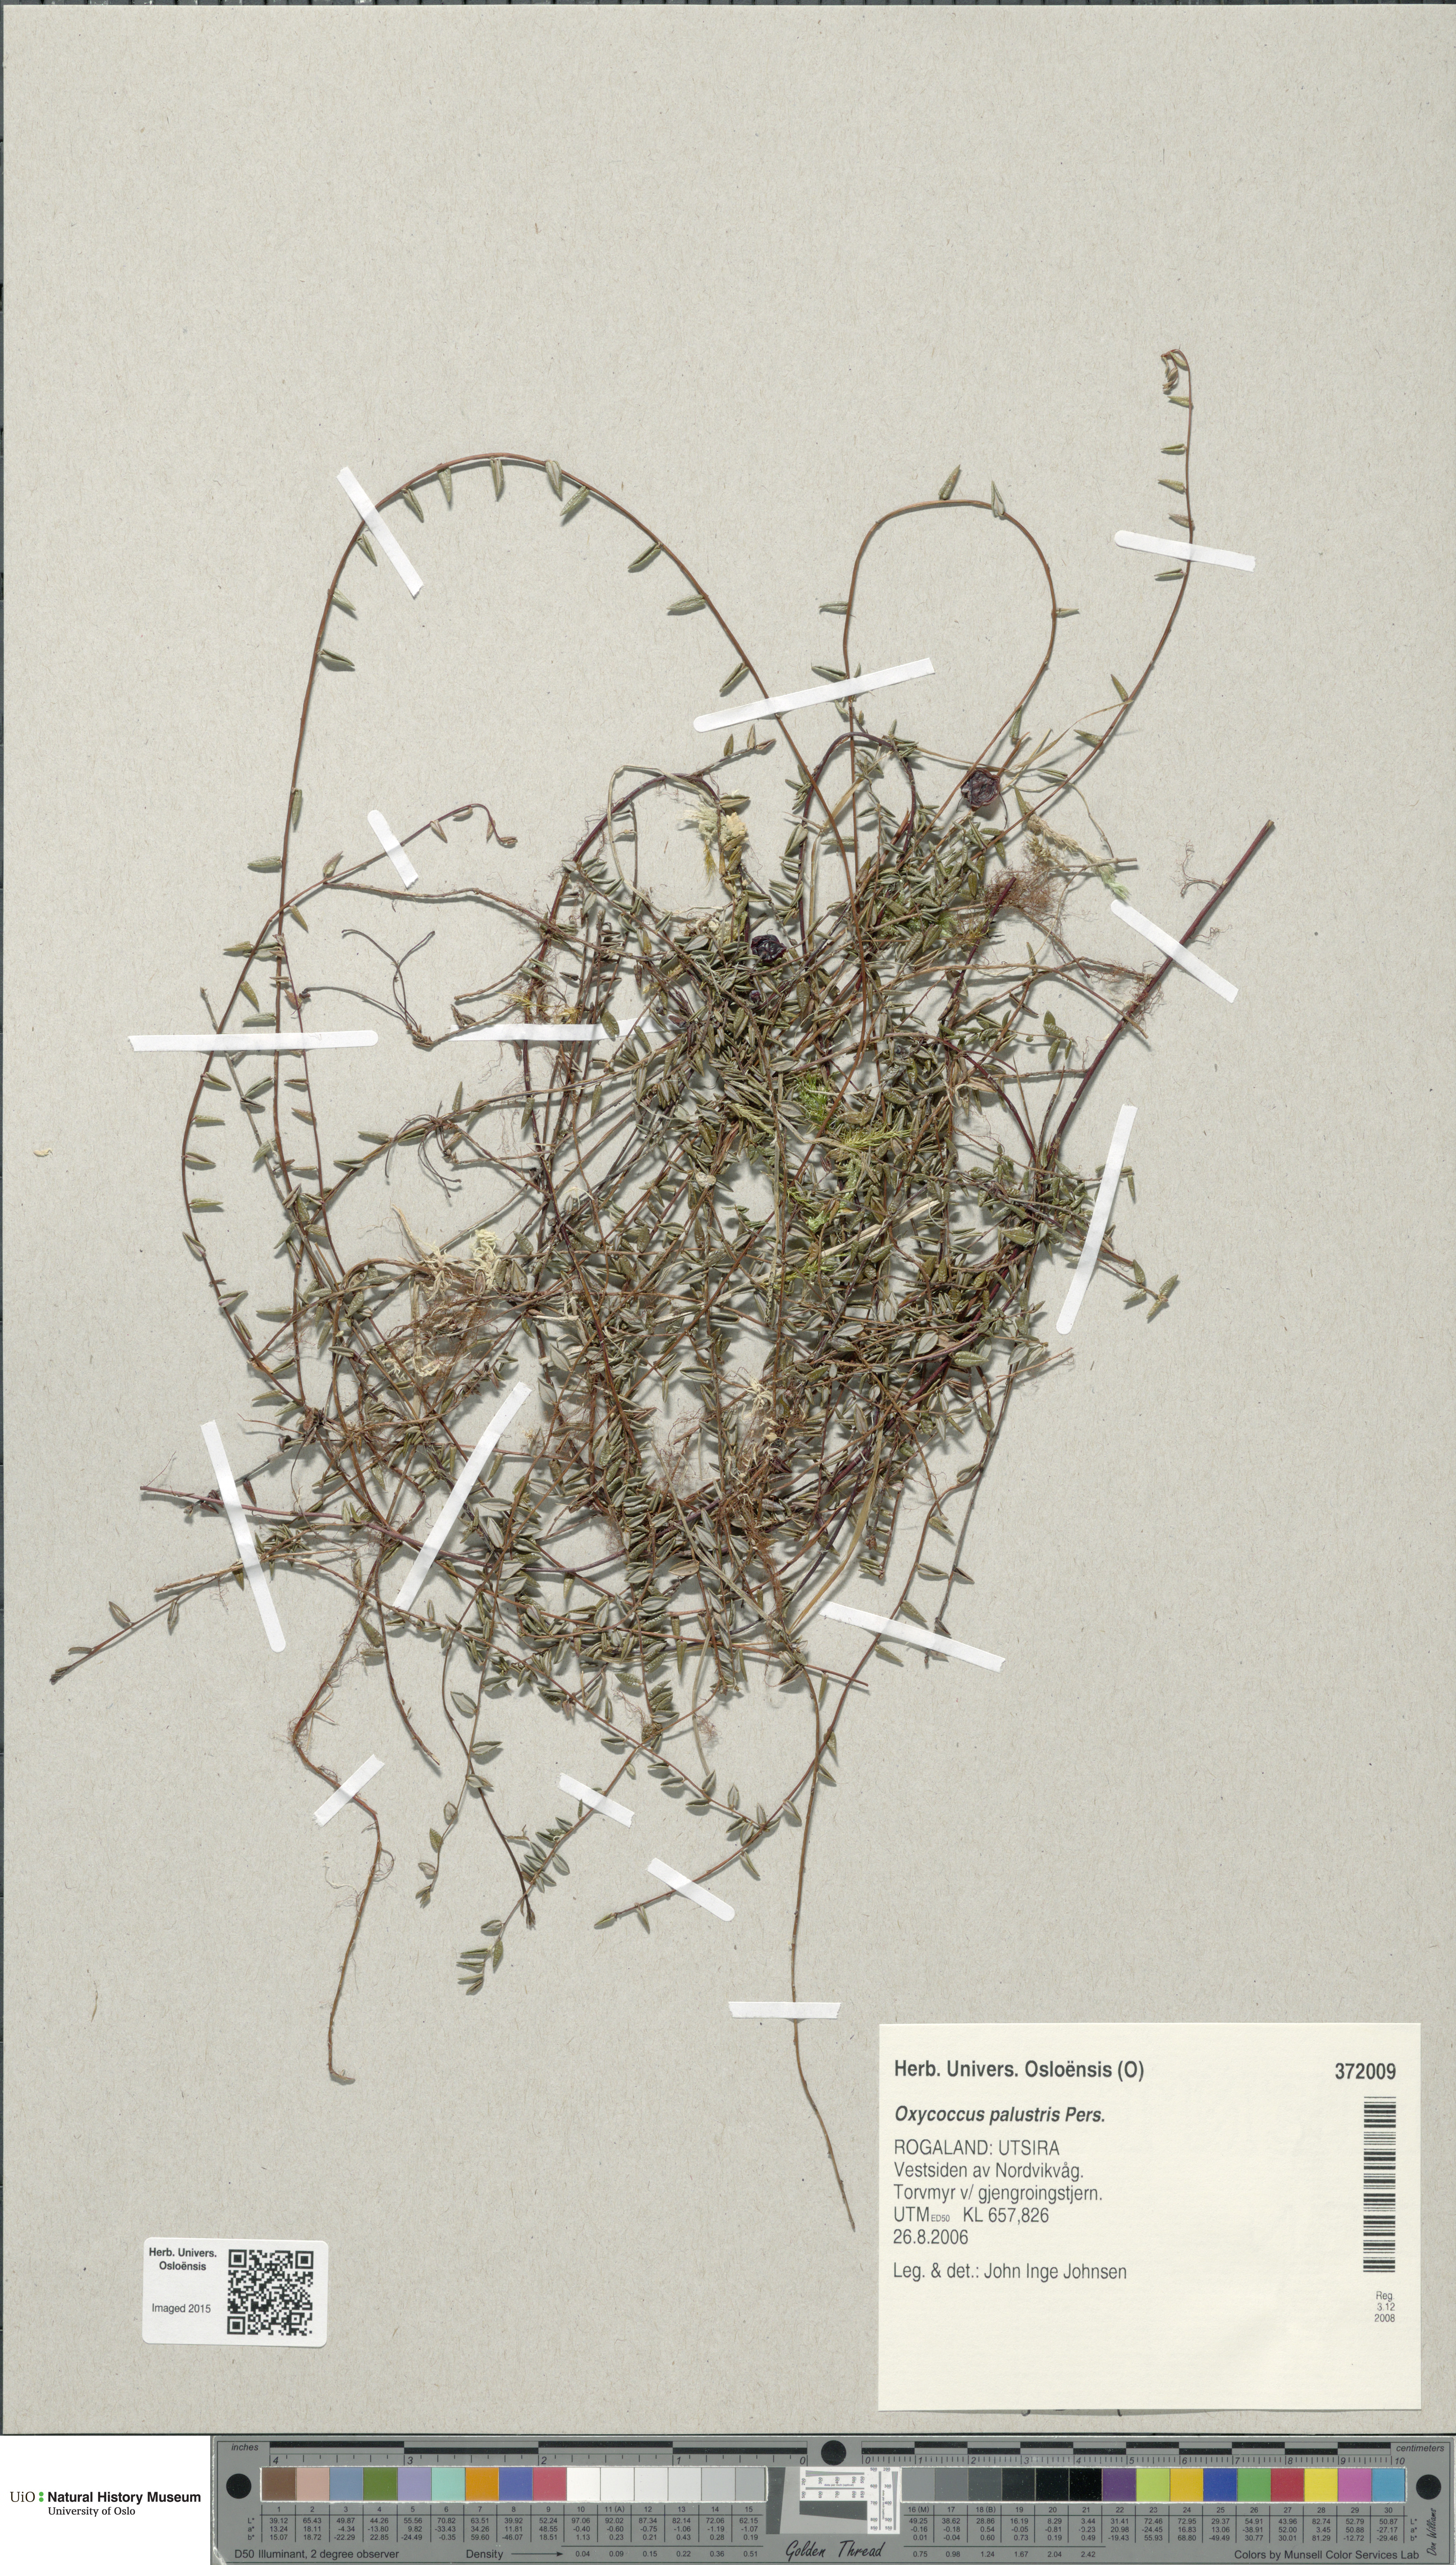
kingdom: Plantae
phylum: Tracheophyta
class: Magnoliopsida
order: Ericales
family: Ericaceae
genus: Vaccinium
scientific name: Vaccinium oxycoccos
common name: Cranberry
